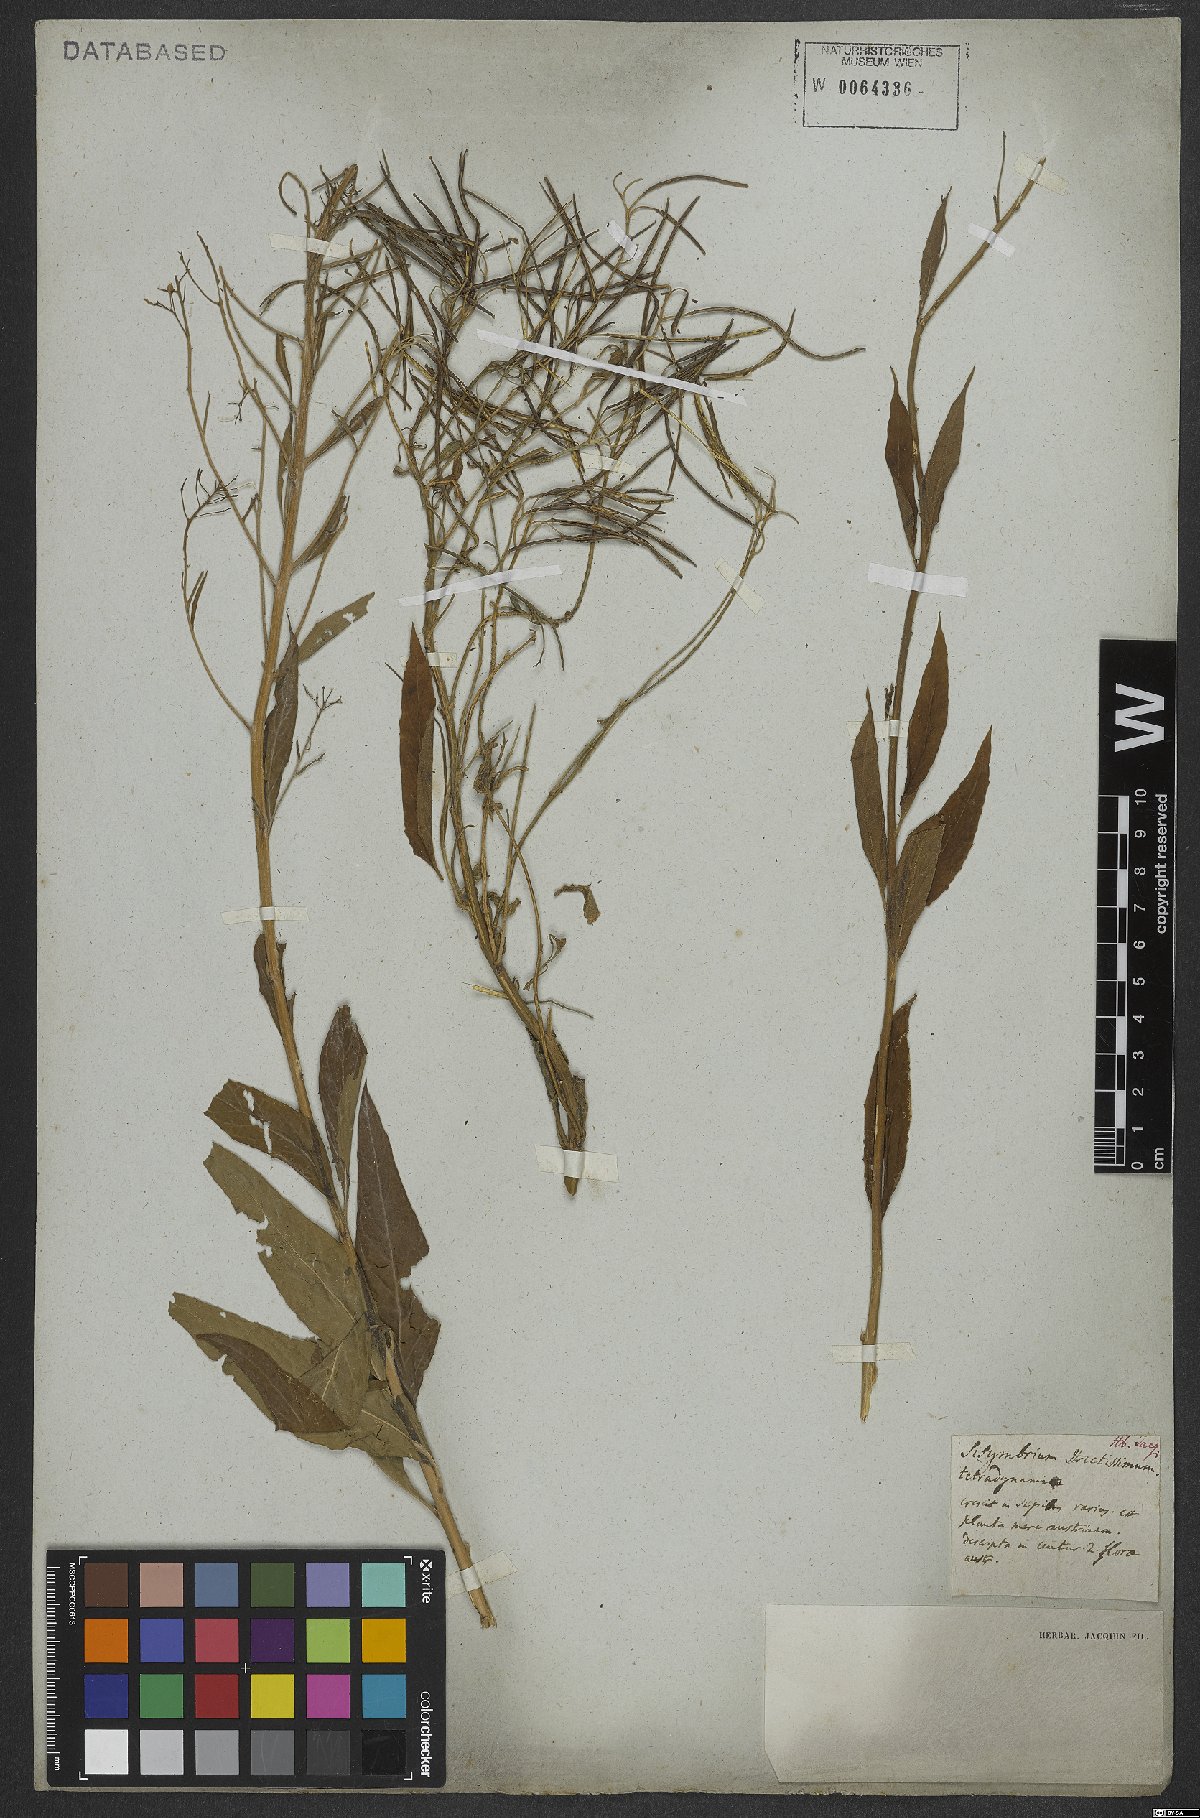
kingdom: Plantae
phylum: Tracheophyta
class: Magnoliopsida
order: Brassicales
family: Brassicaceae
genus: Sisymbrium
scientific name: Sisymbrium strictissimum
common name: Perennial rocket
